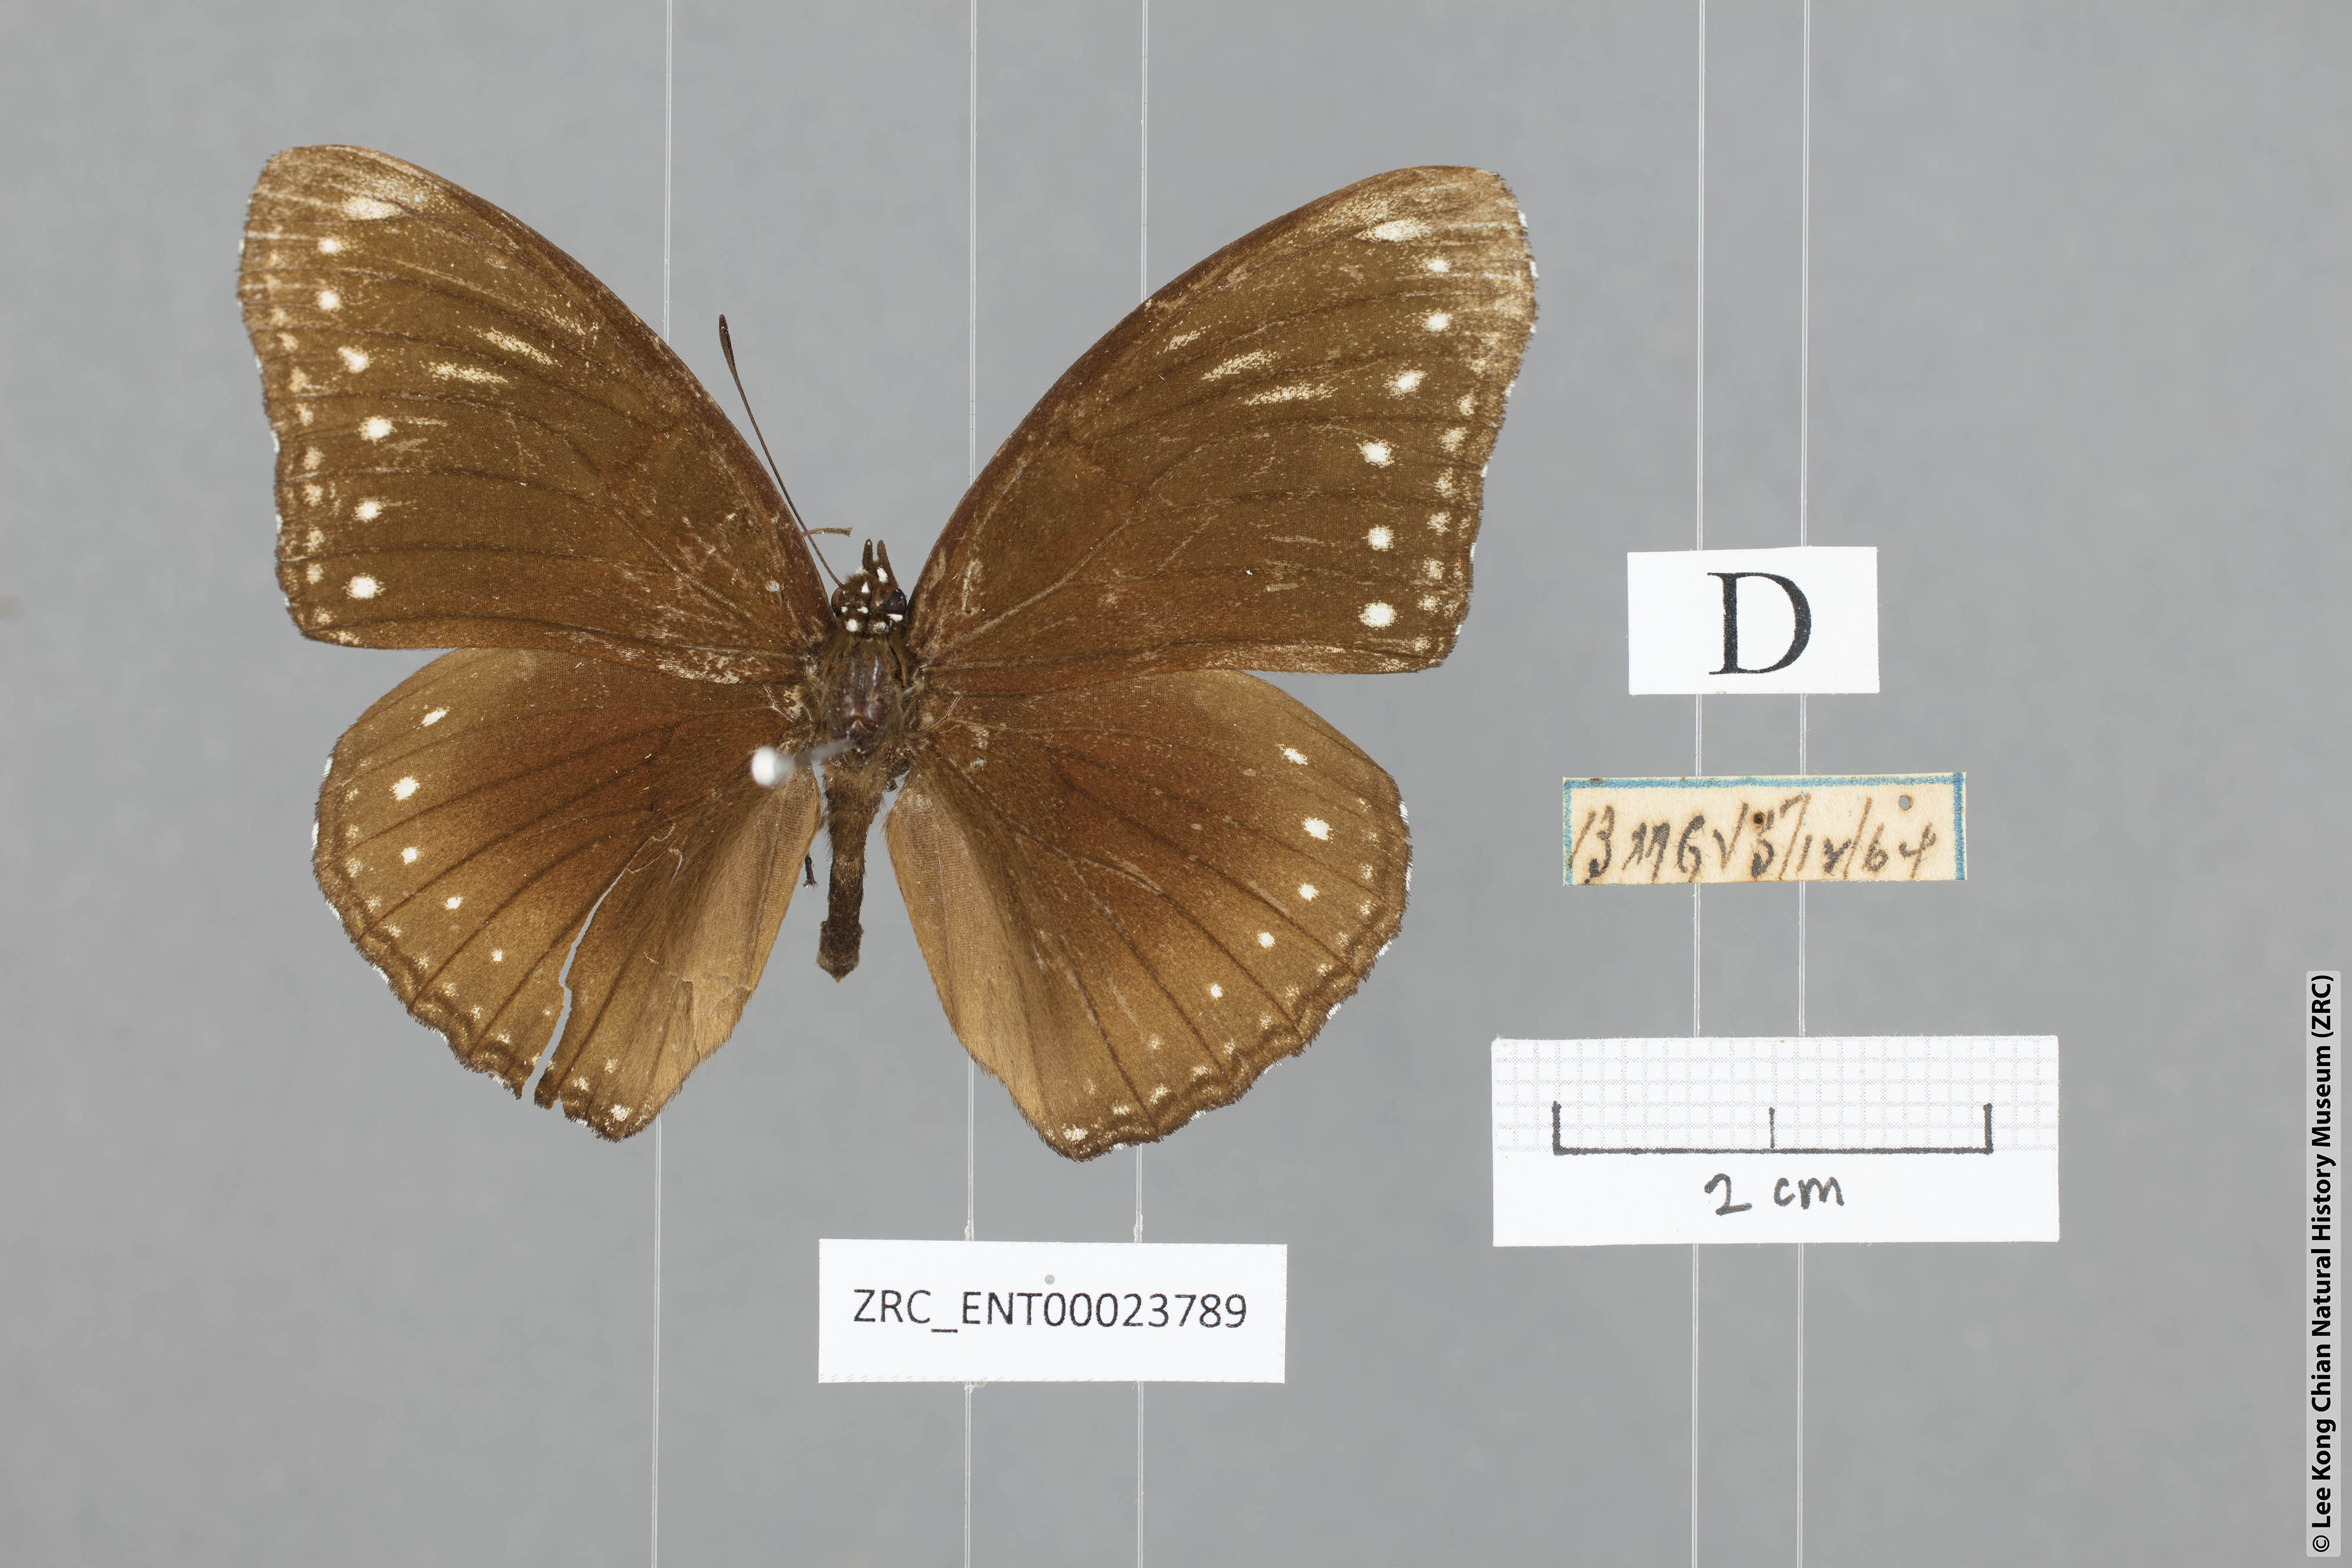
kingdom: Animalia
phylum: Arthropoda
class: Insecta
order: Lepidoptera
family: Nymphalidae
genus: Hypolimnas
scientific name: Hypolimnas anomala
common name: Malayan eggfly
